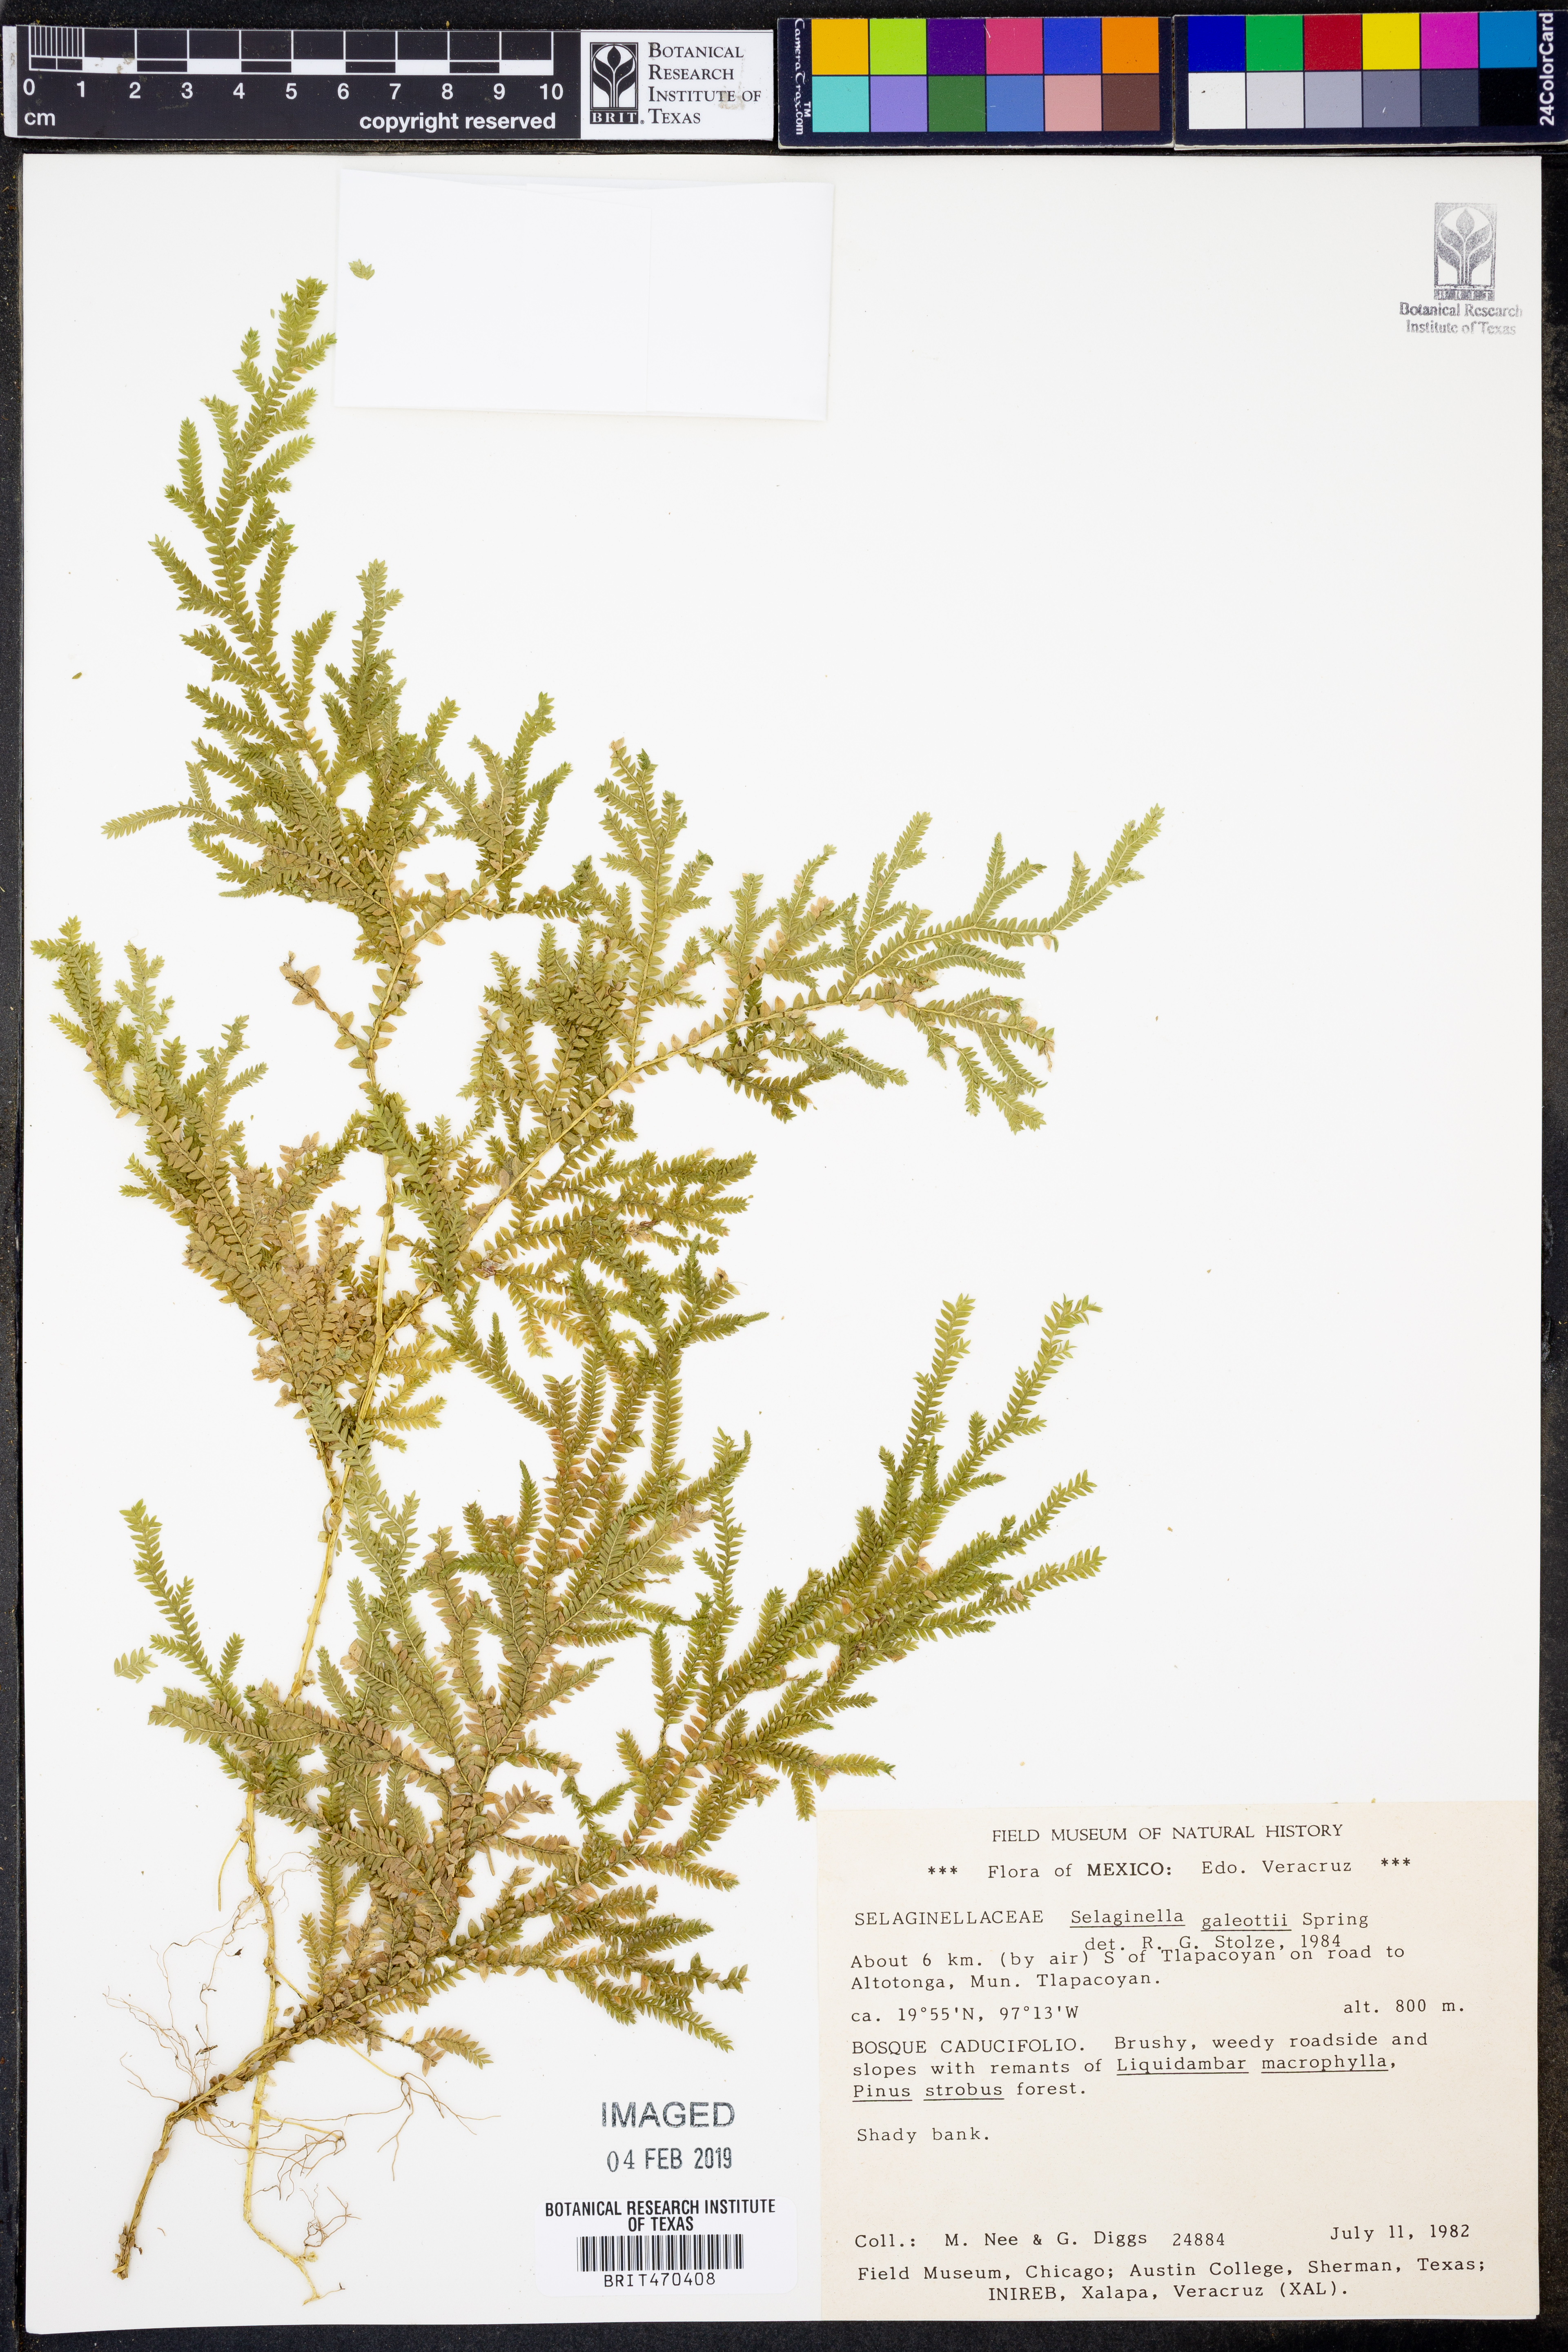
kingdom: Plantae
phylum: Tracheophyta
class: Lycopodiopsida
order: Selaginellales
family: Selaginellaceae
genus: Selaginella
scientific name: Selaginella stellata
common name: Starry spikemoss
